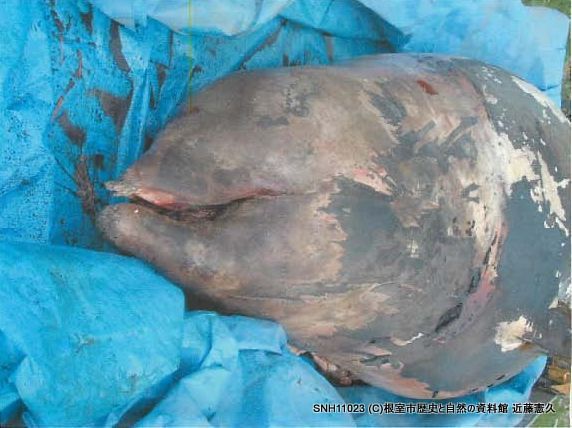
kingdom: Animalia
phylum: Chordata
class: Mammalia
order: Cetacea
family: Hyperoodontidae
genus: Ziphius
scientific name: Ziphius cavirostris
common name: Cuvier's beaked whale
